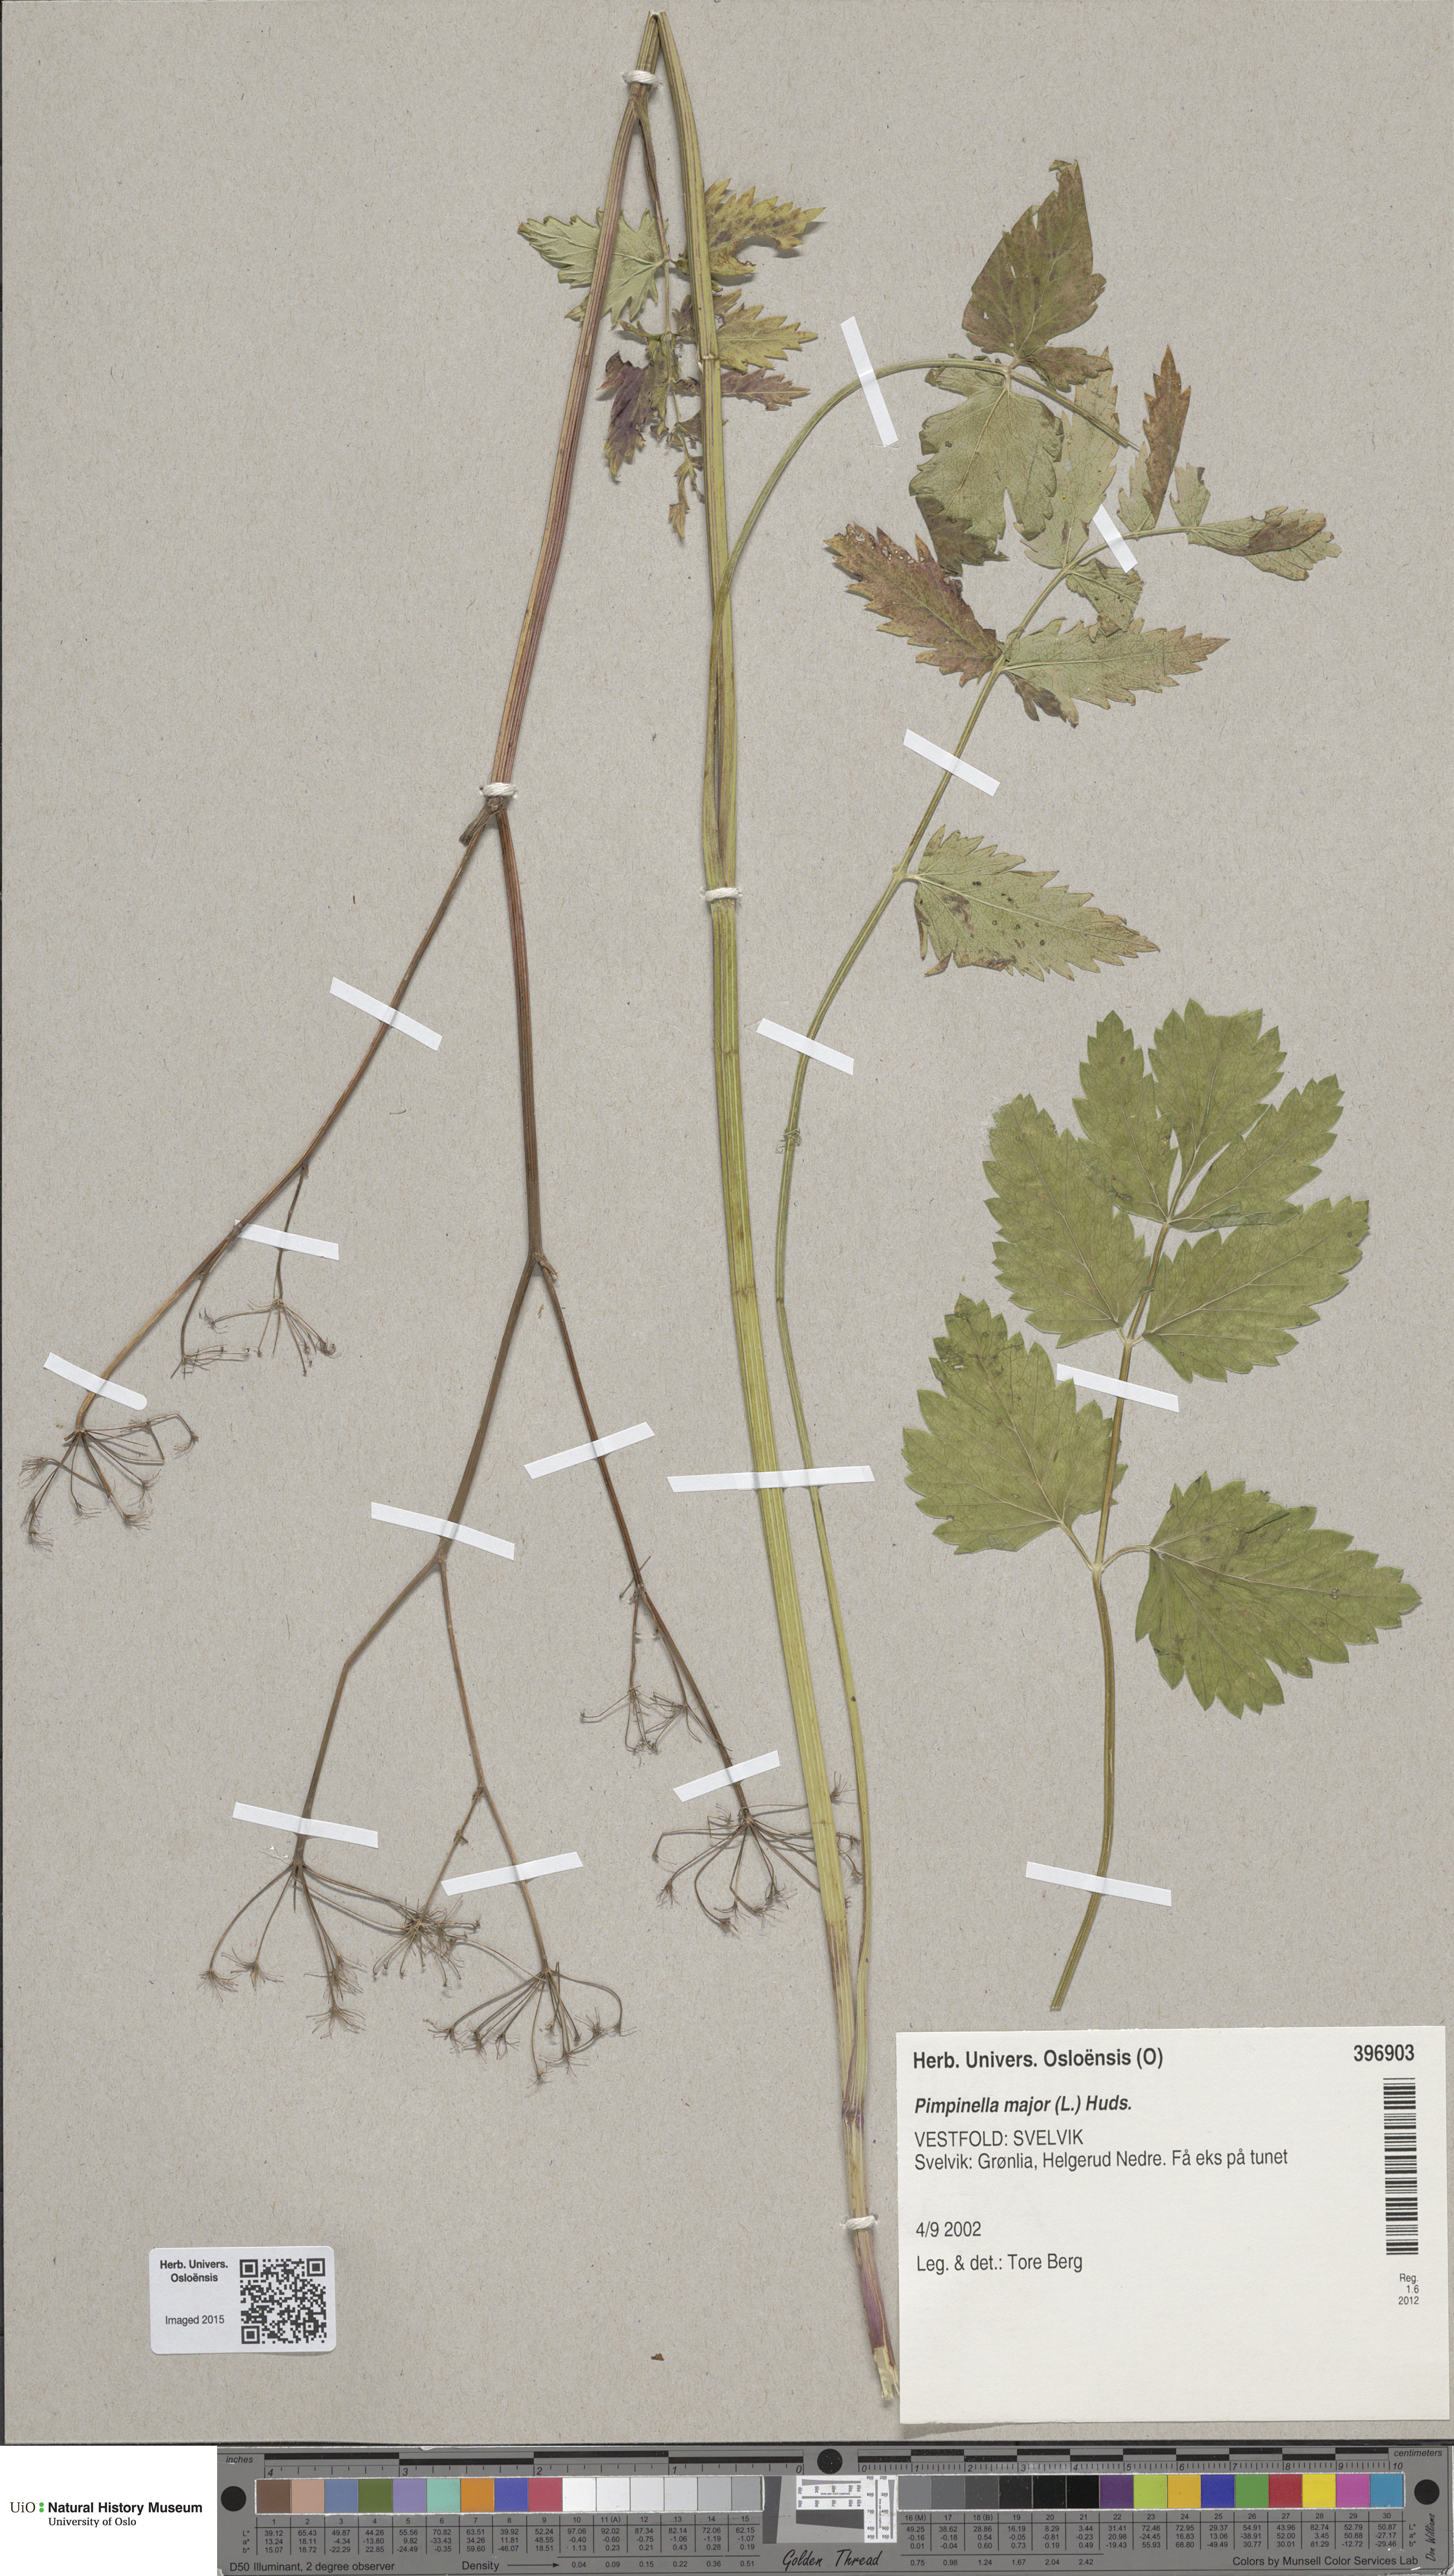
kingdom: Plantae
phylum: Tracheophyta
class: Magnoliopsida
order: Apiales
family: Apiaceae
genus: Pimpinella
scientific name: Pimpinella major
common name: Greater burnet-saxifrage
